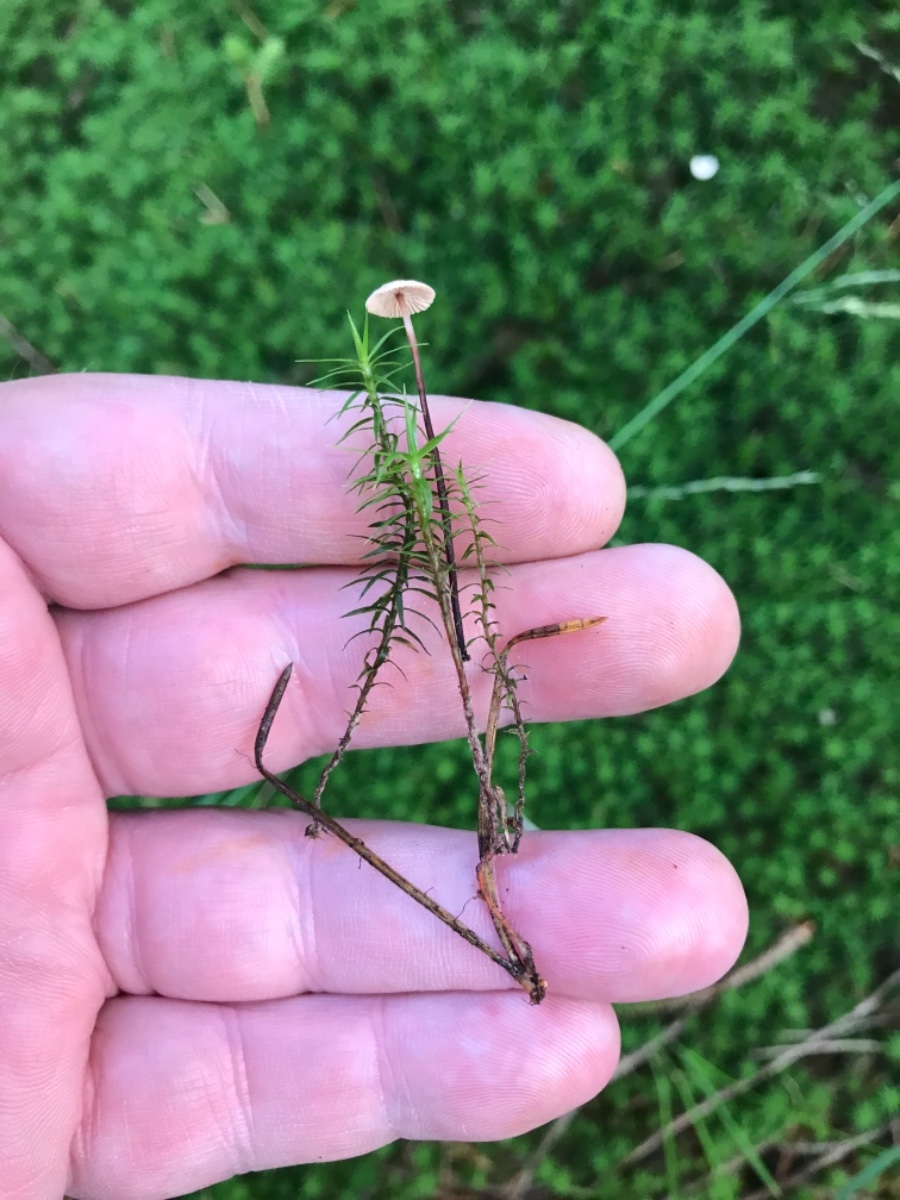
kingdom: Fungi
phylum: Basidiomycota
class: Agaricomycetes
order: Agaricales
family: Omphalotaceae
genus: Paragymnopus
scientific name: Paragymnopus perforans
